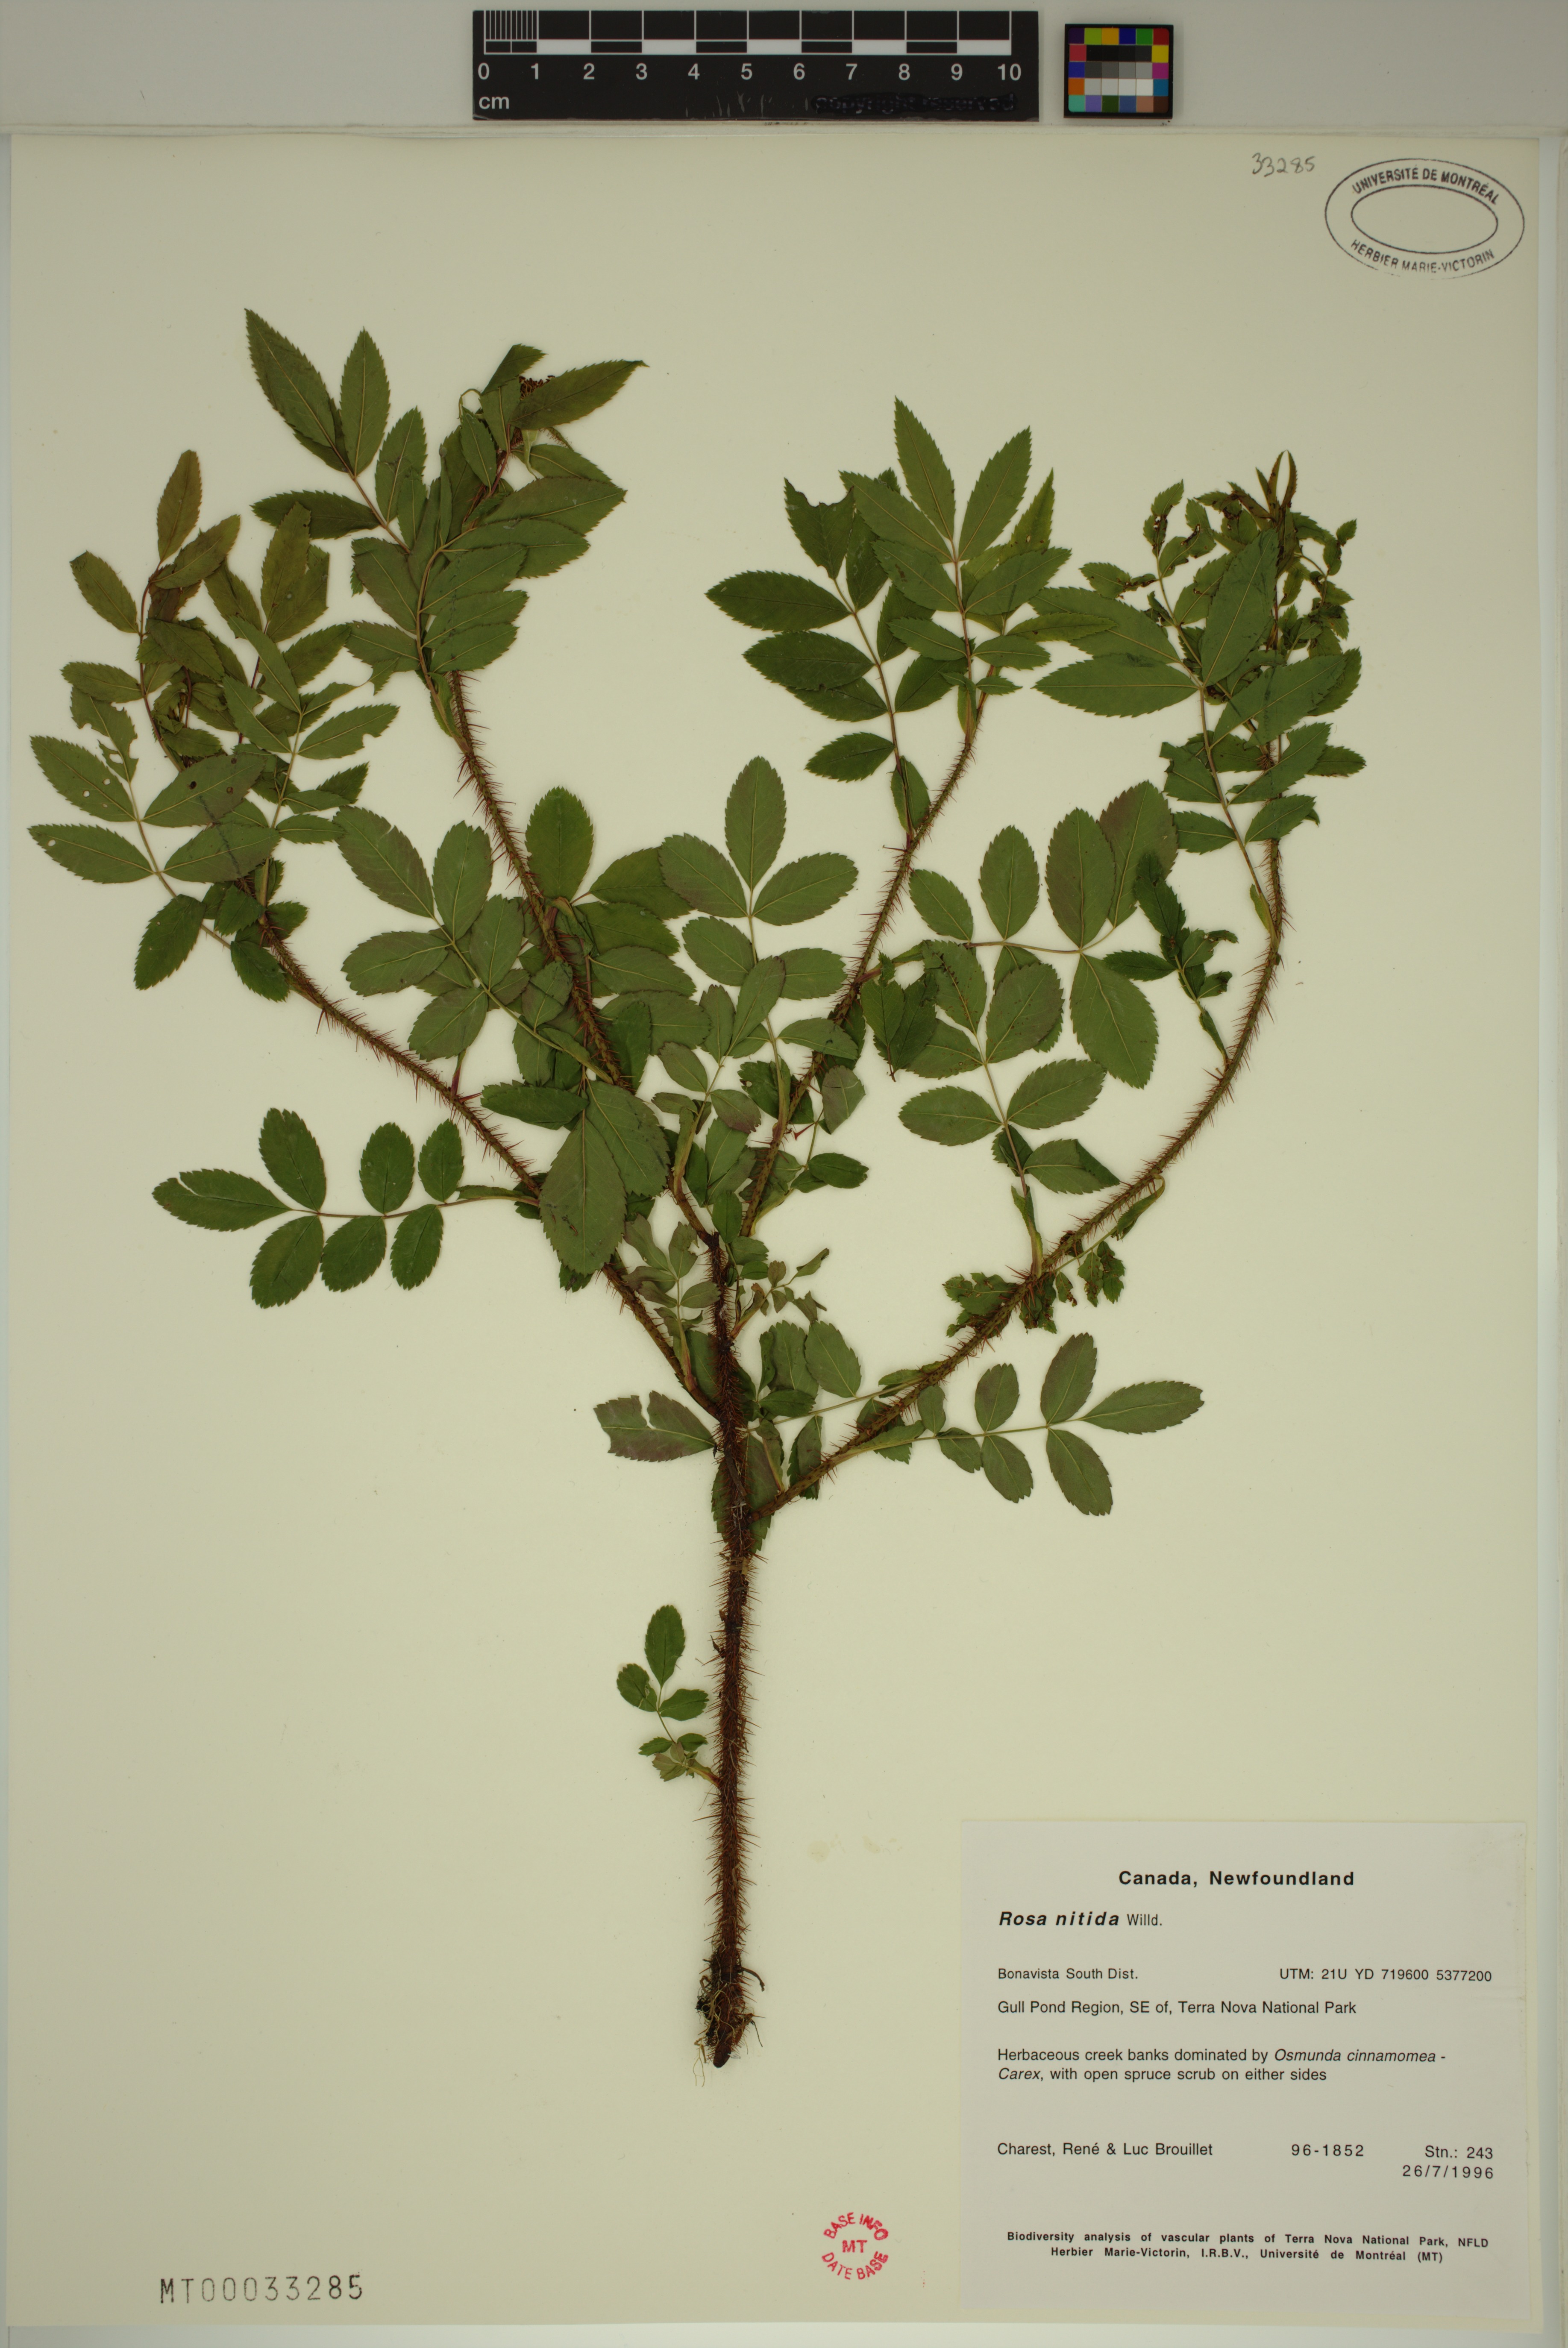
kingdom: Plantae
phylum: Tracheophyta
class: Magnoliopsida
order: Rosales
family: Rosaceae
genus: Rosa
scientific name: Rosa nitida
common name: New england rose
